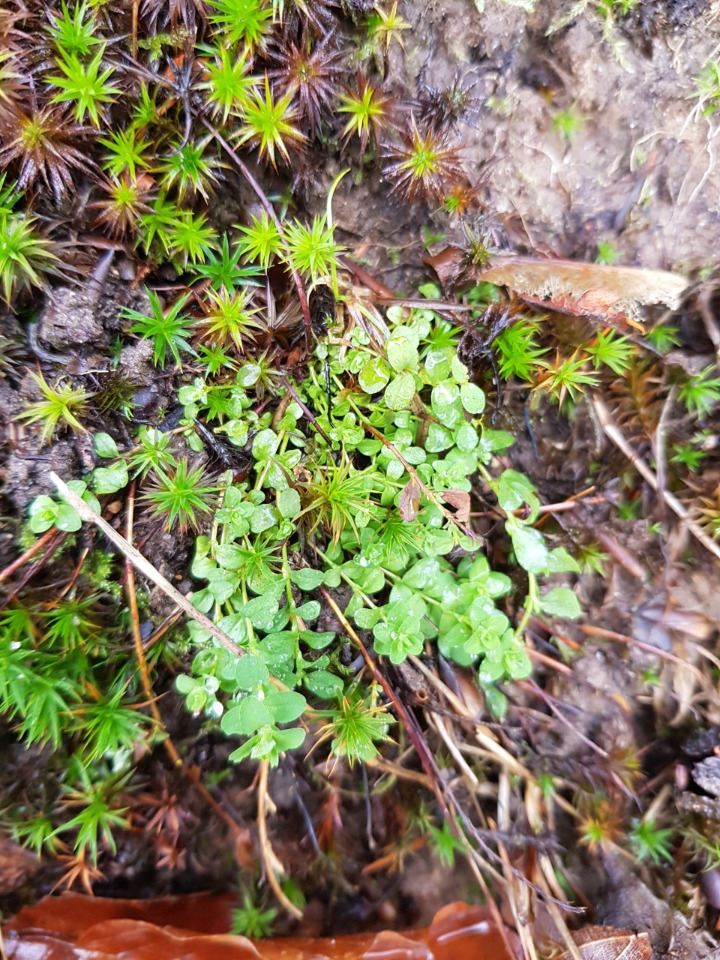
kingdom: Plantae
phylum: Tracheophyta
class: Magnoliopsida
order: Malpighiales
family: Hypericaceae
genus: Hypericum
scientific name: Hypericum humifusum
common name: Dværg-perikon
